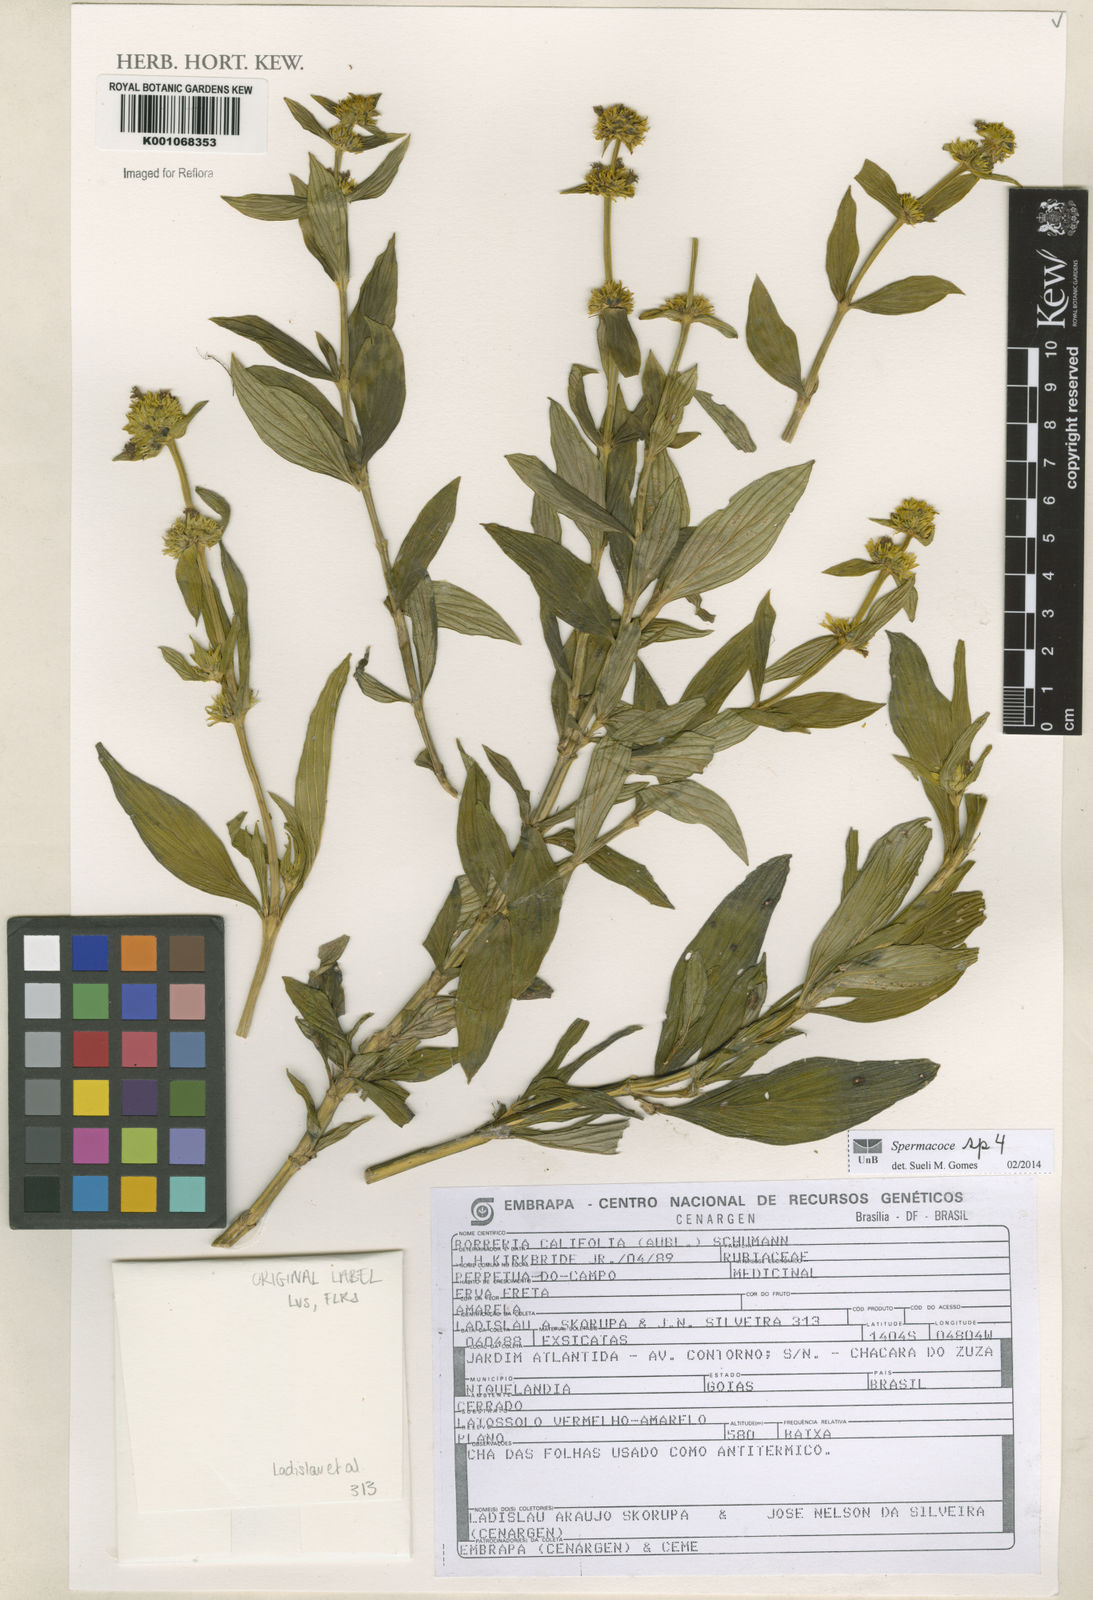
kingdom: Plantae
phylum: Tracheophyta
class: Magnoliopsida
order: Gentianales
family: Rubiaceae
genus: Spermacoce
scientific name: Spermacoce
